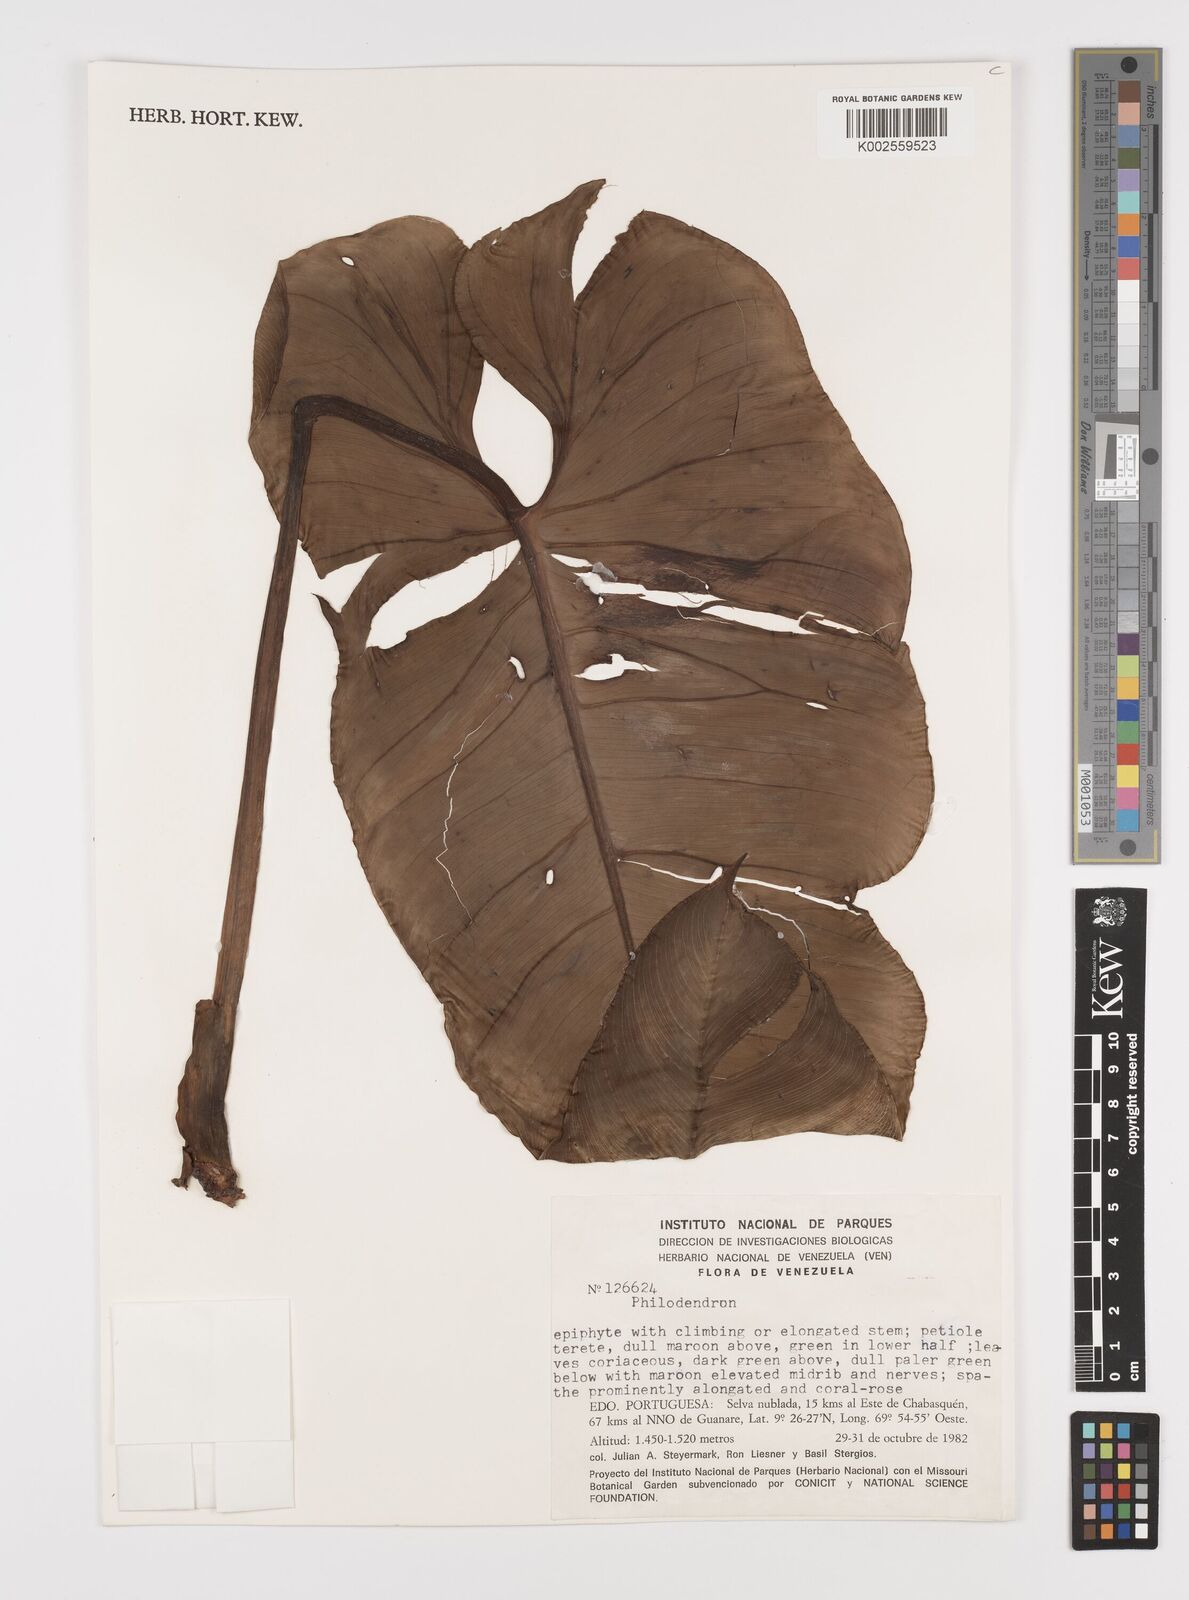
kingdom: Plantae
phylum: Tracheophyta
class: Liliopsida
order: Alismatales
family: Araceae
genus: Philodendron
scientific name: Philodendron
